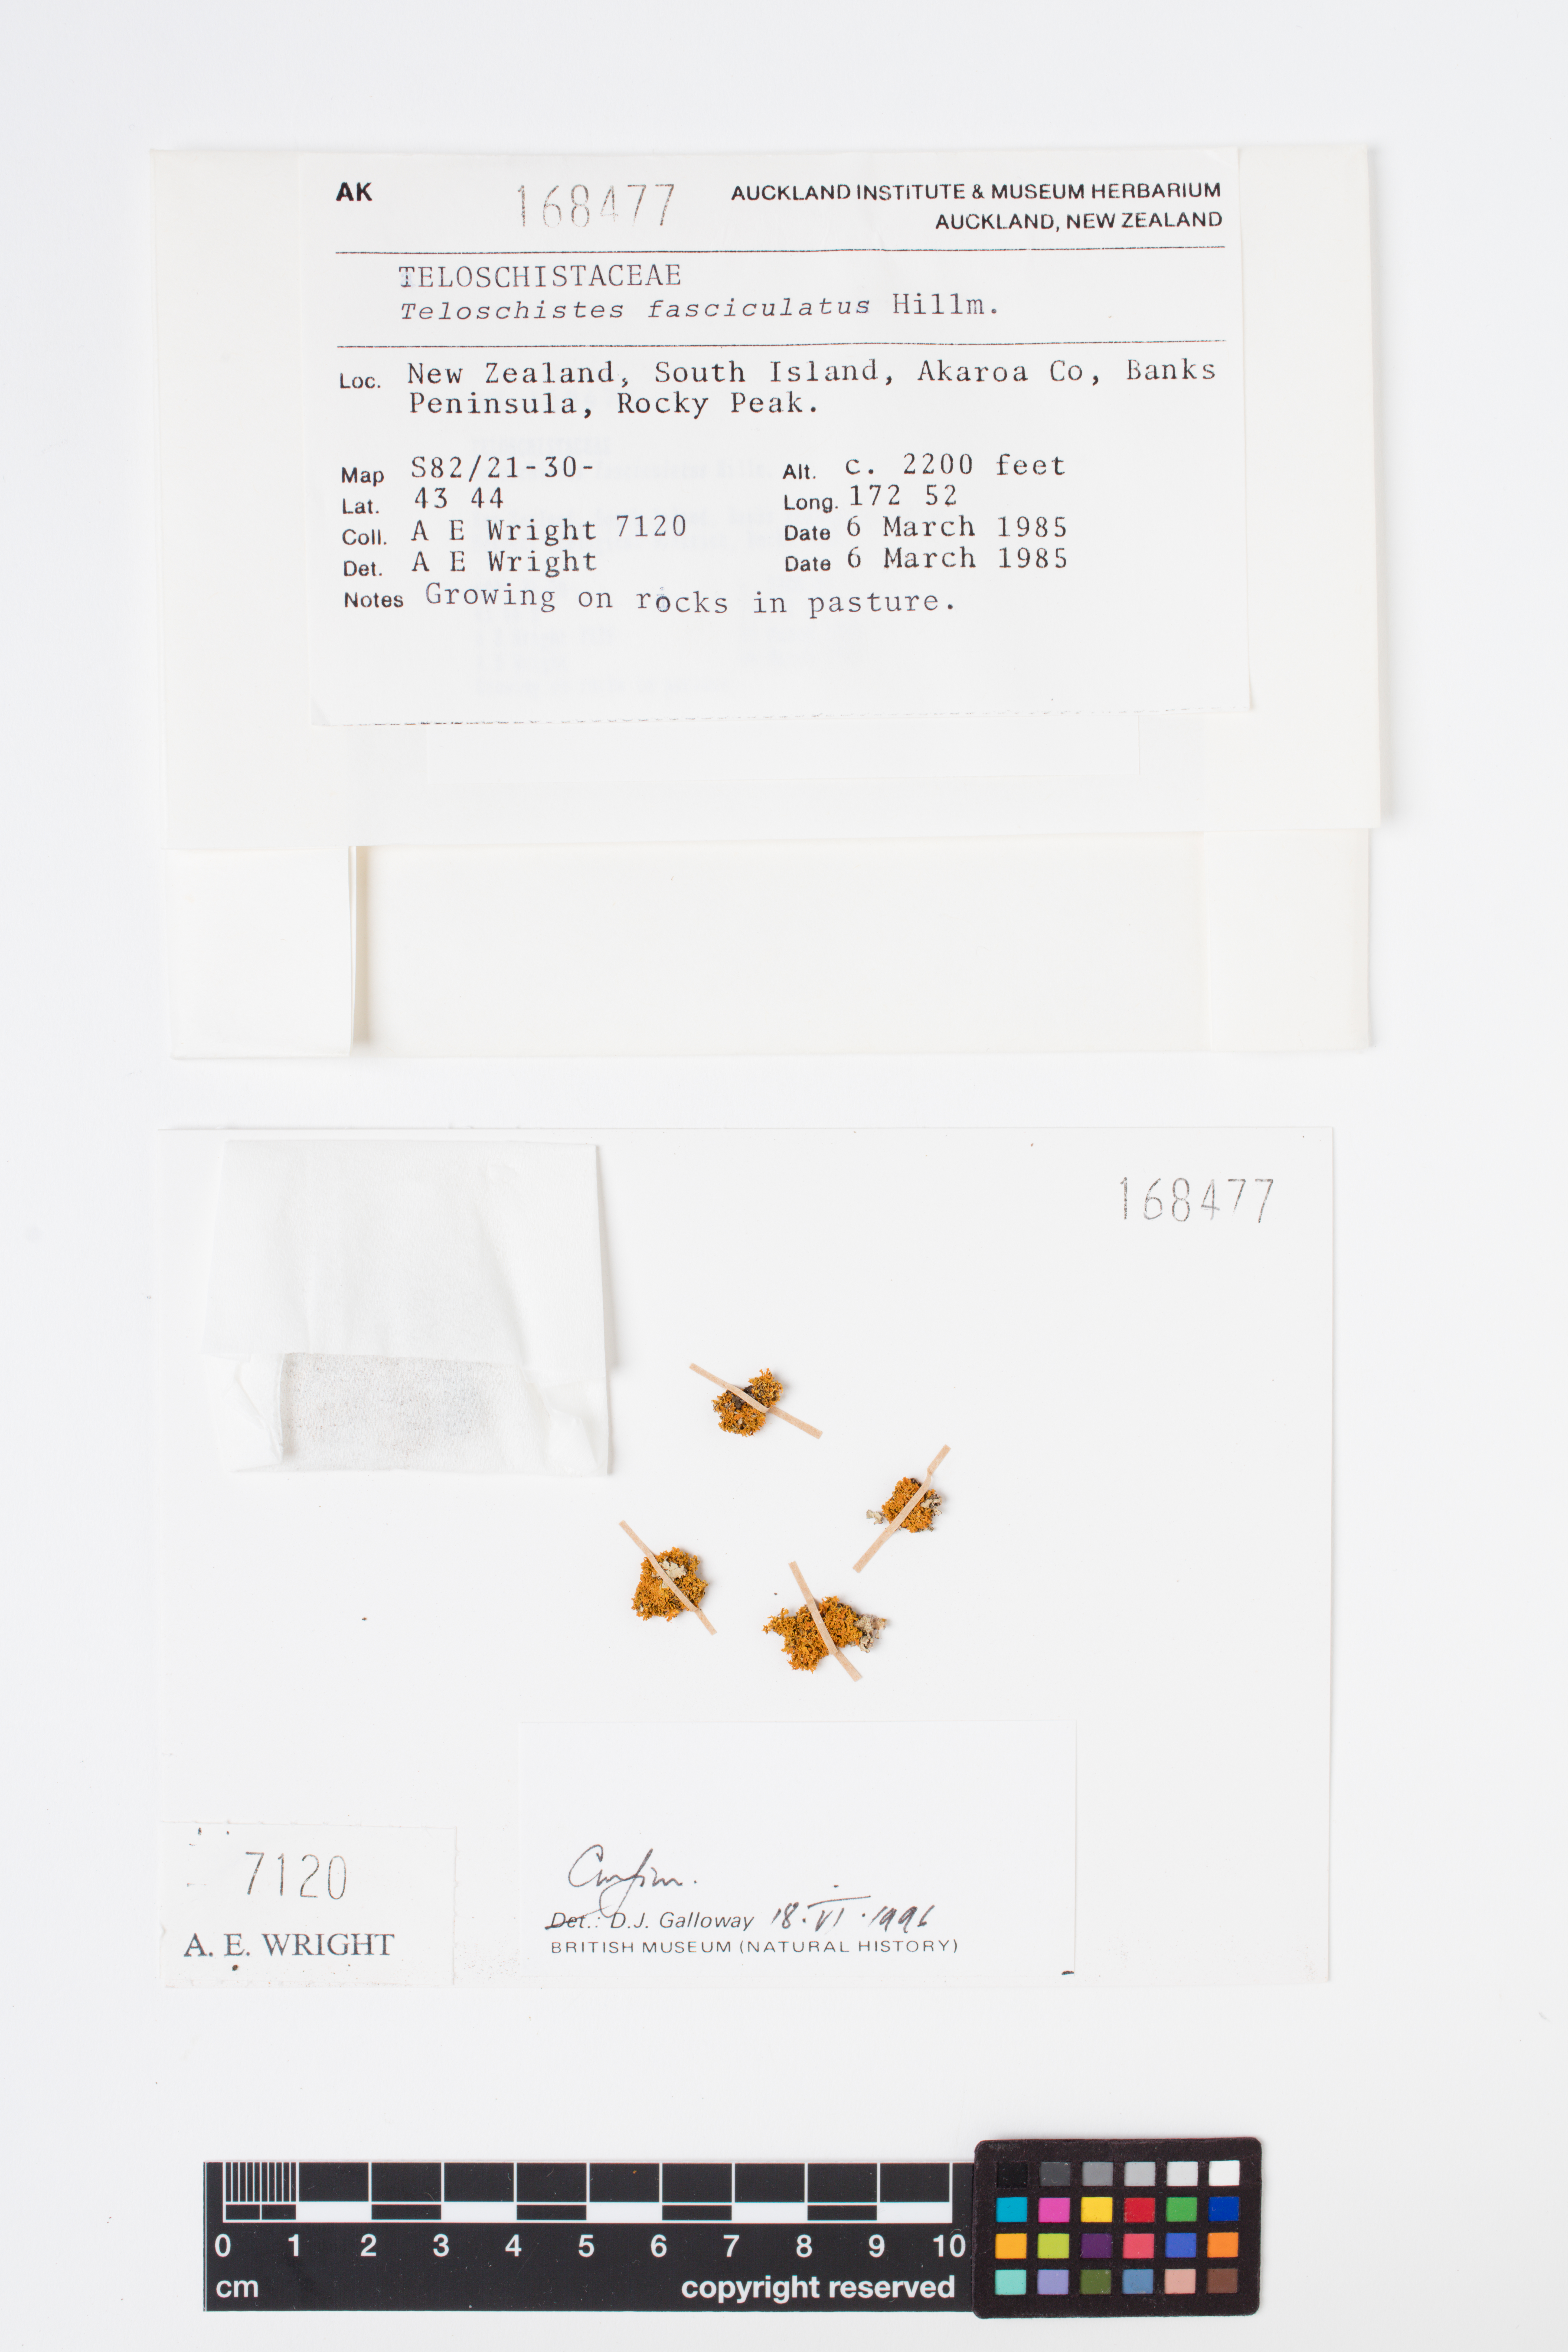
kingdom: Fungi
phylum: Ascomycota
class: Lecanoromycetes
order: Teloschistales
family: Teloschistaceae
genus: Teloschistes
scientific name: Teloschistes fasciculatus
